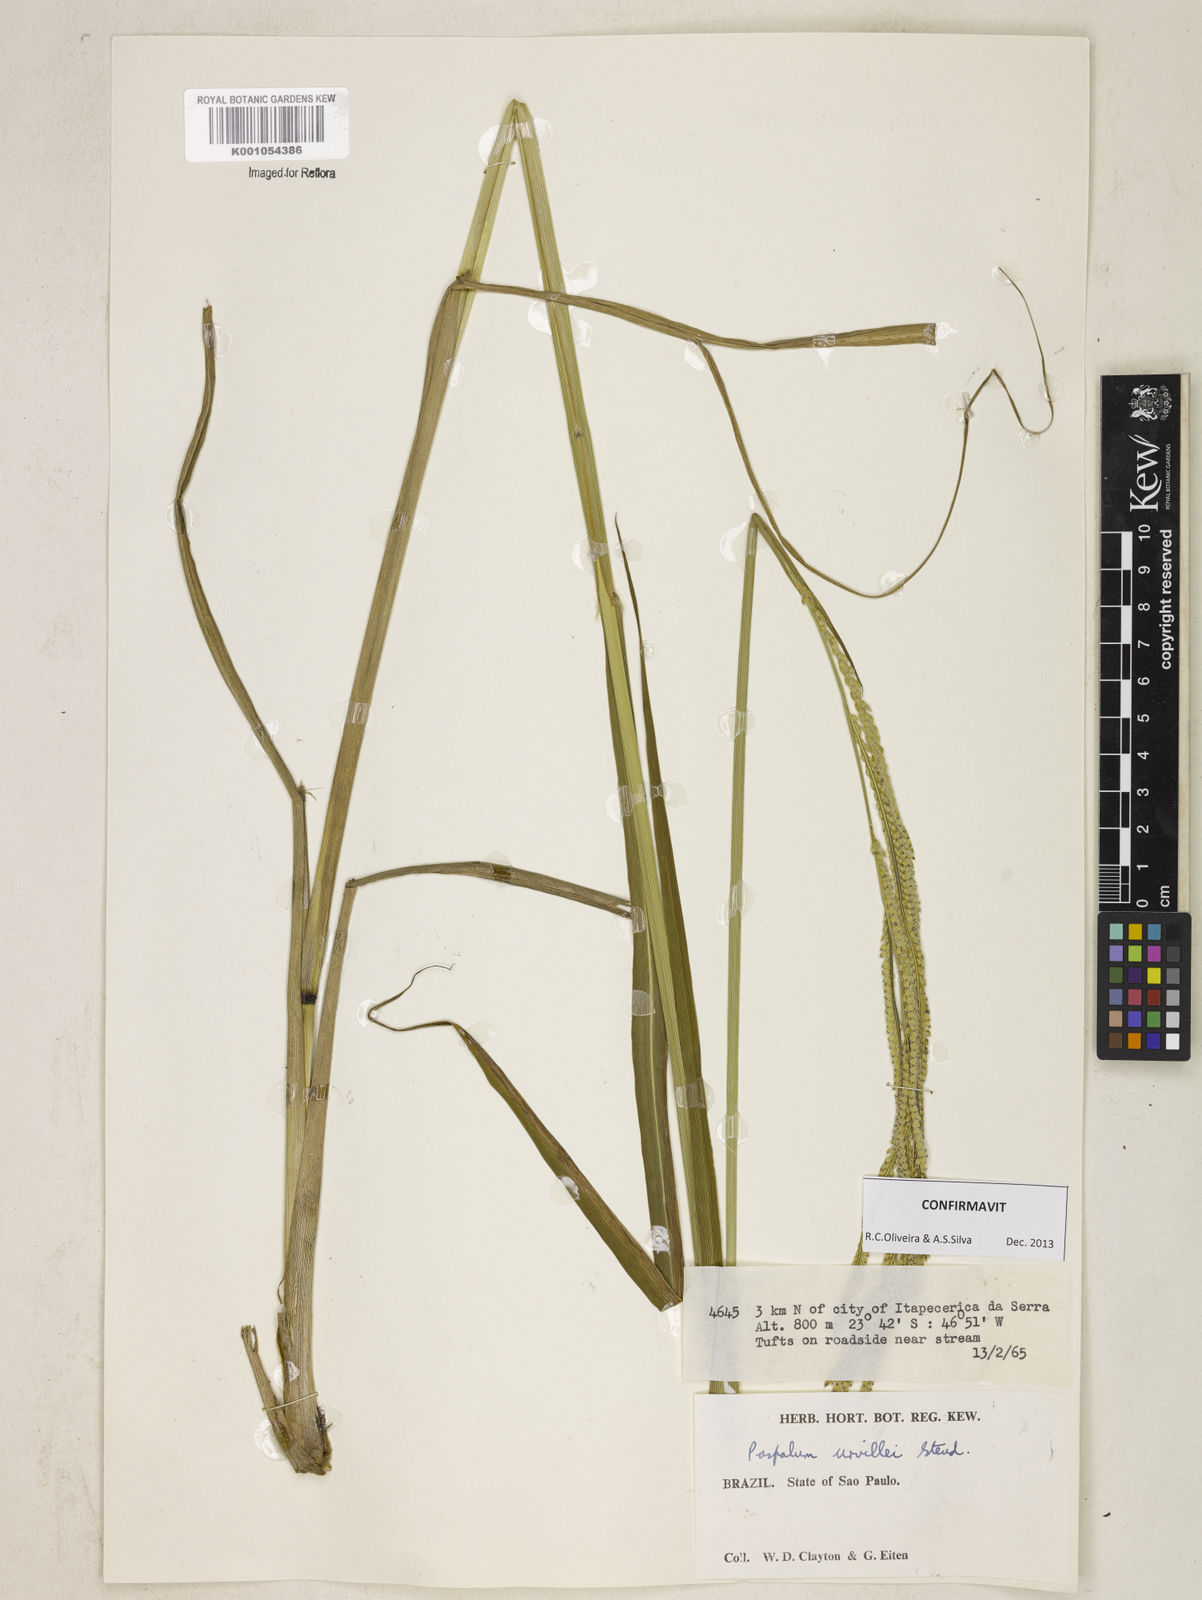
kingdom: Plantae
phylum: Tracheophyta
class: Liliopsida
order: Poales
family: Poaceae
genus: Paspalum
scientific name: Paspalum urvillei
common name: Vasey's grass
